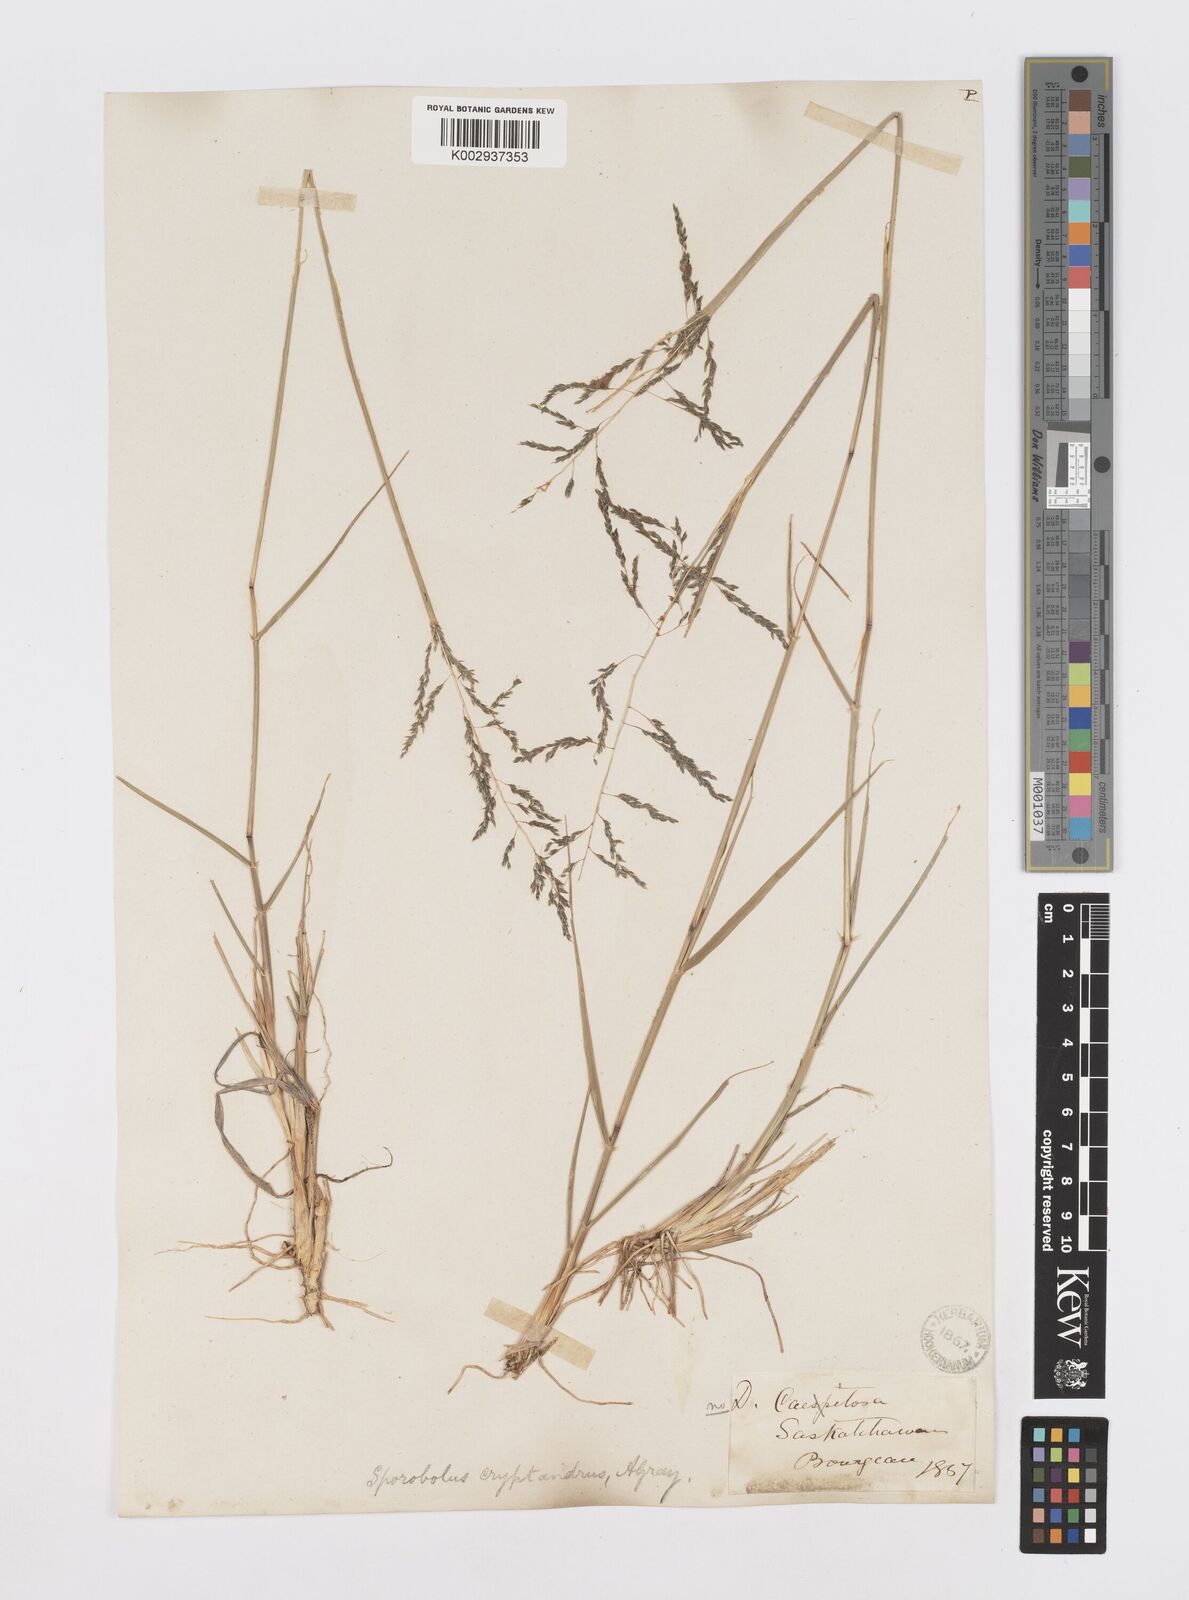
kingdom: Plantae
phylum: Tracheophyta
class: Liliopsida
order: Poales
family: Poaceae
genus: Sporobolus
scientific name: Sporobolus cryptandrus
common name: Sand dropseed
